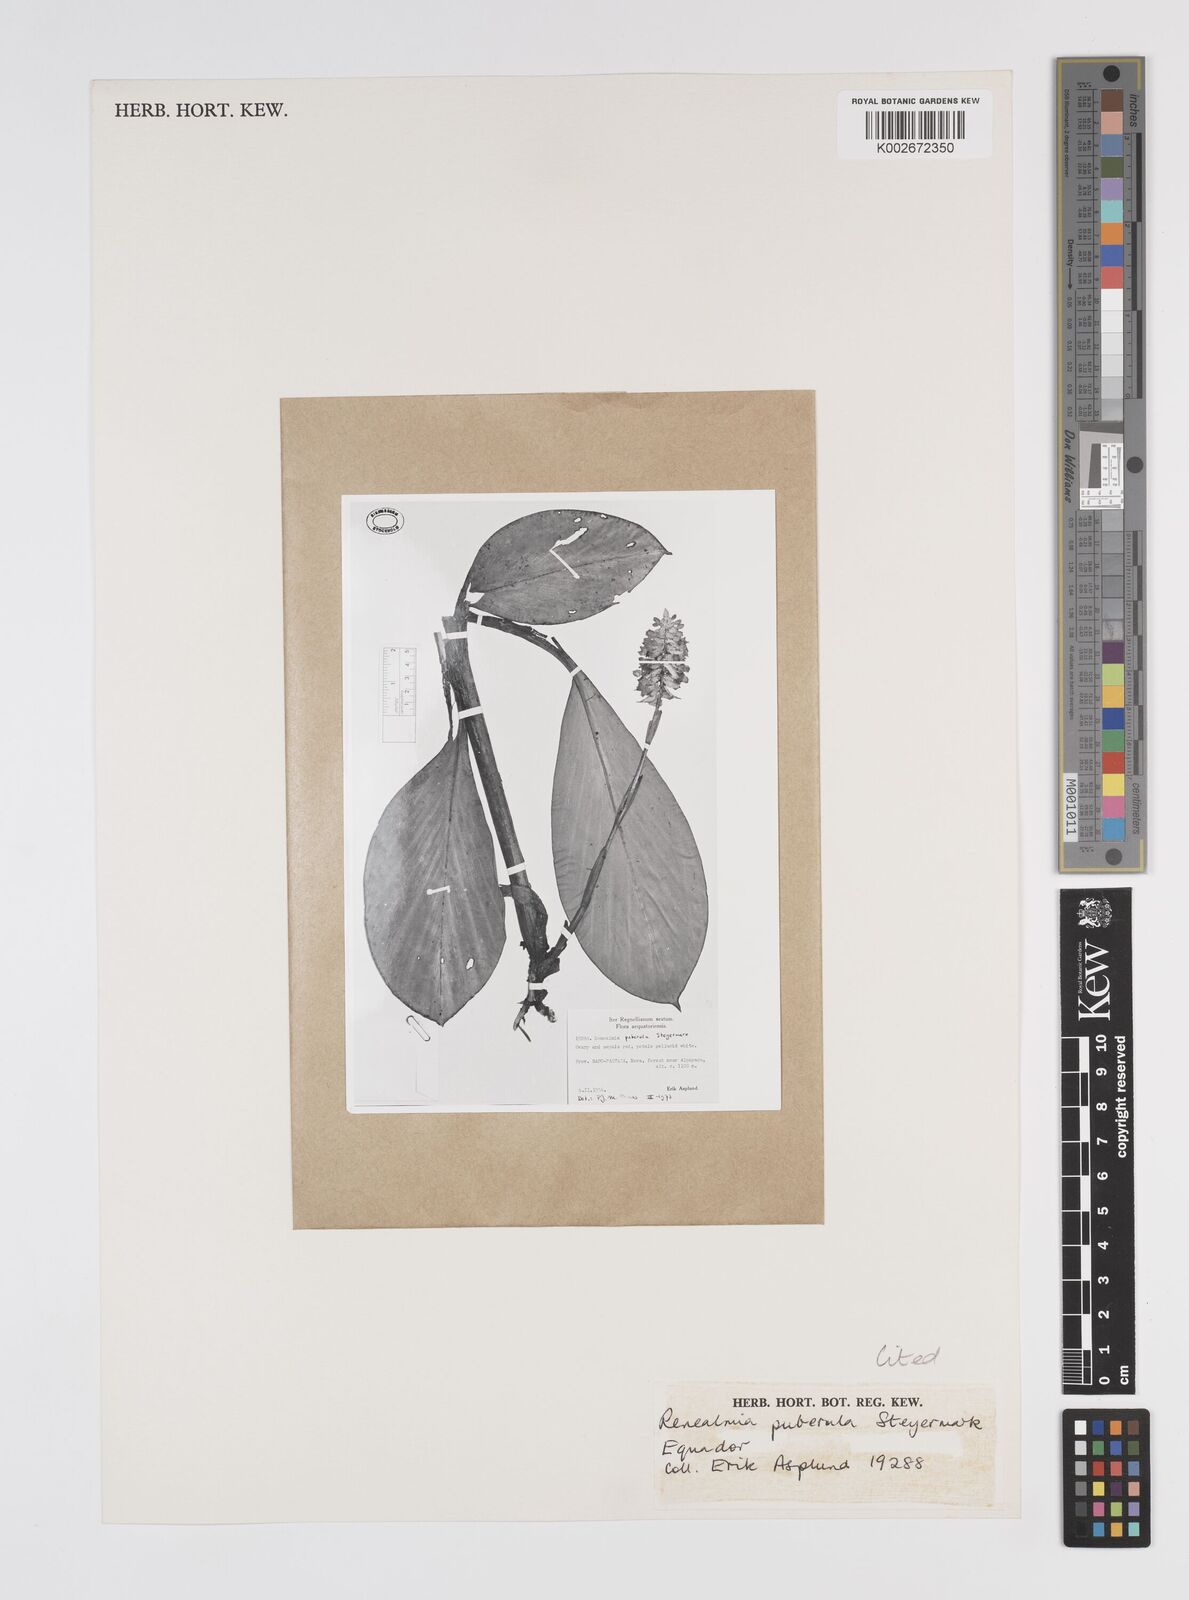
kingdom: Plantae
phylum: Tracheophyta
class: Liliopsida
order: Zingiberales
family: Zingiberaceae
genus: Renealmia
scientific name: Renealmia puberula
